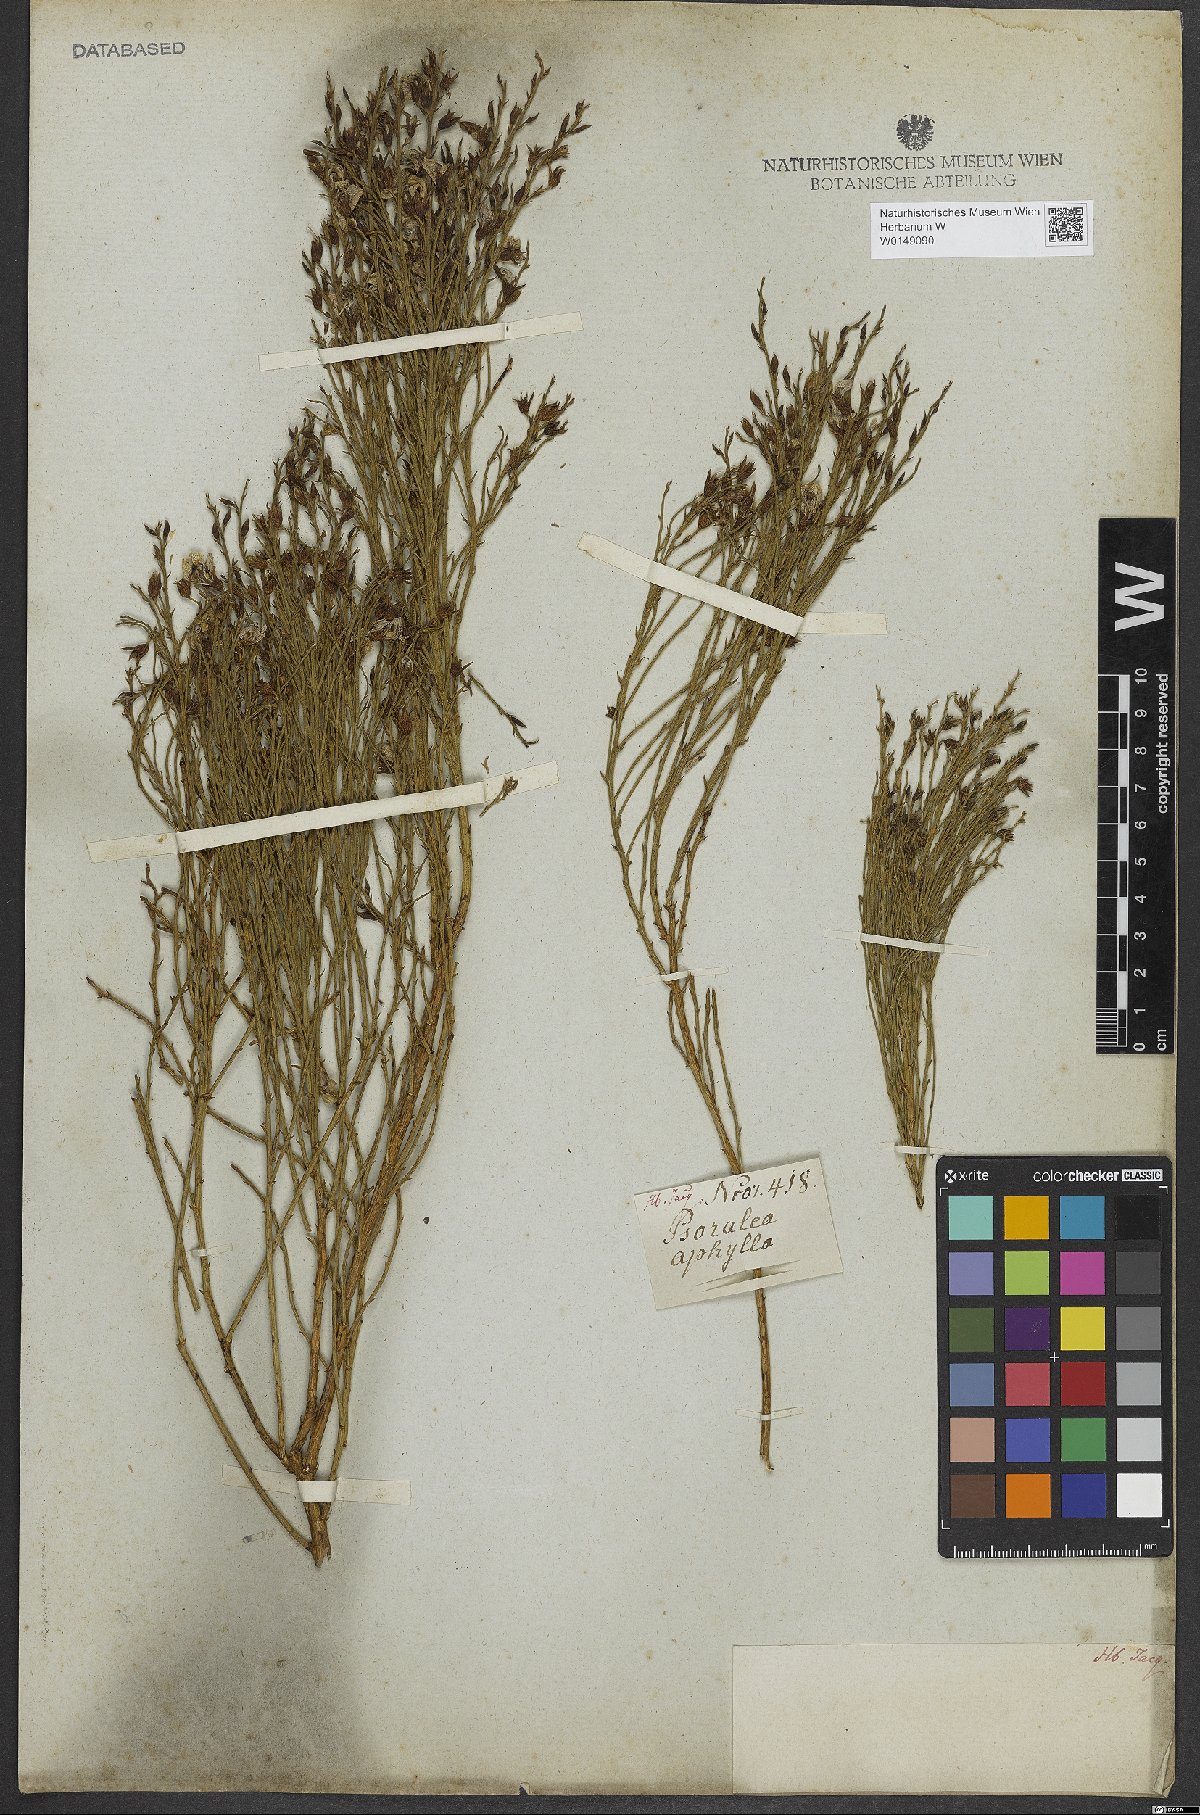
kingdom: Plantae
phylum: Tracheophyta
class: Magnoliopsida
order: Fabales
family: Fabaceae
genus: Psoralea
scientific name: Psoralea aphylla
